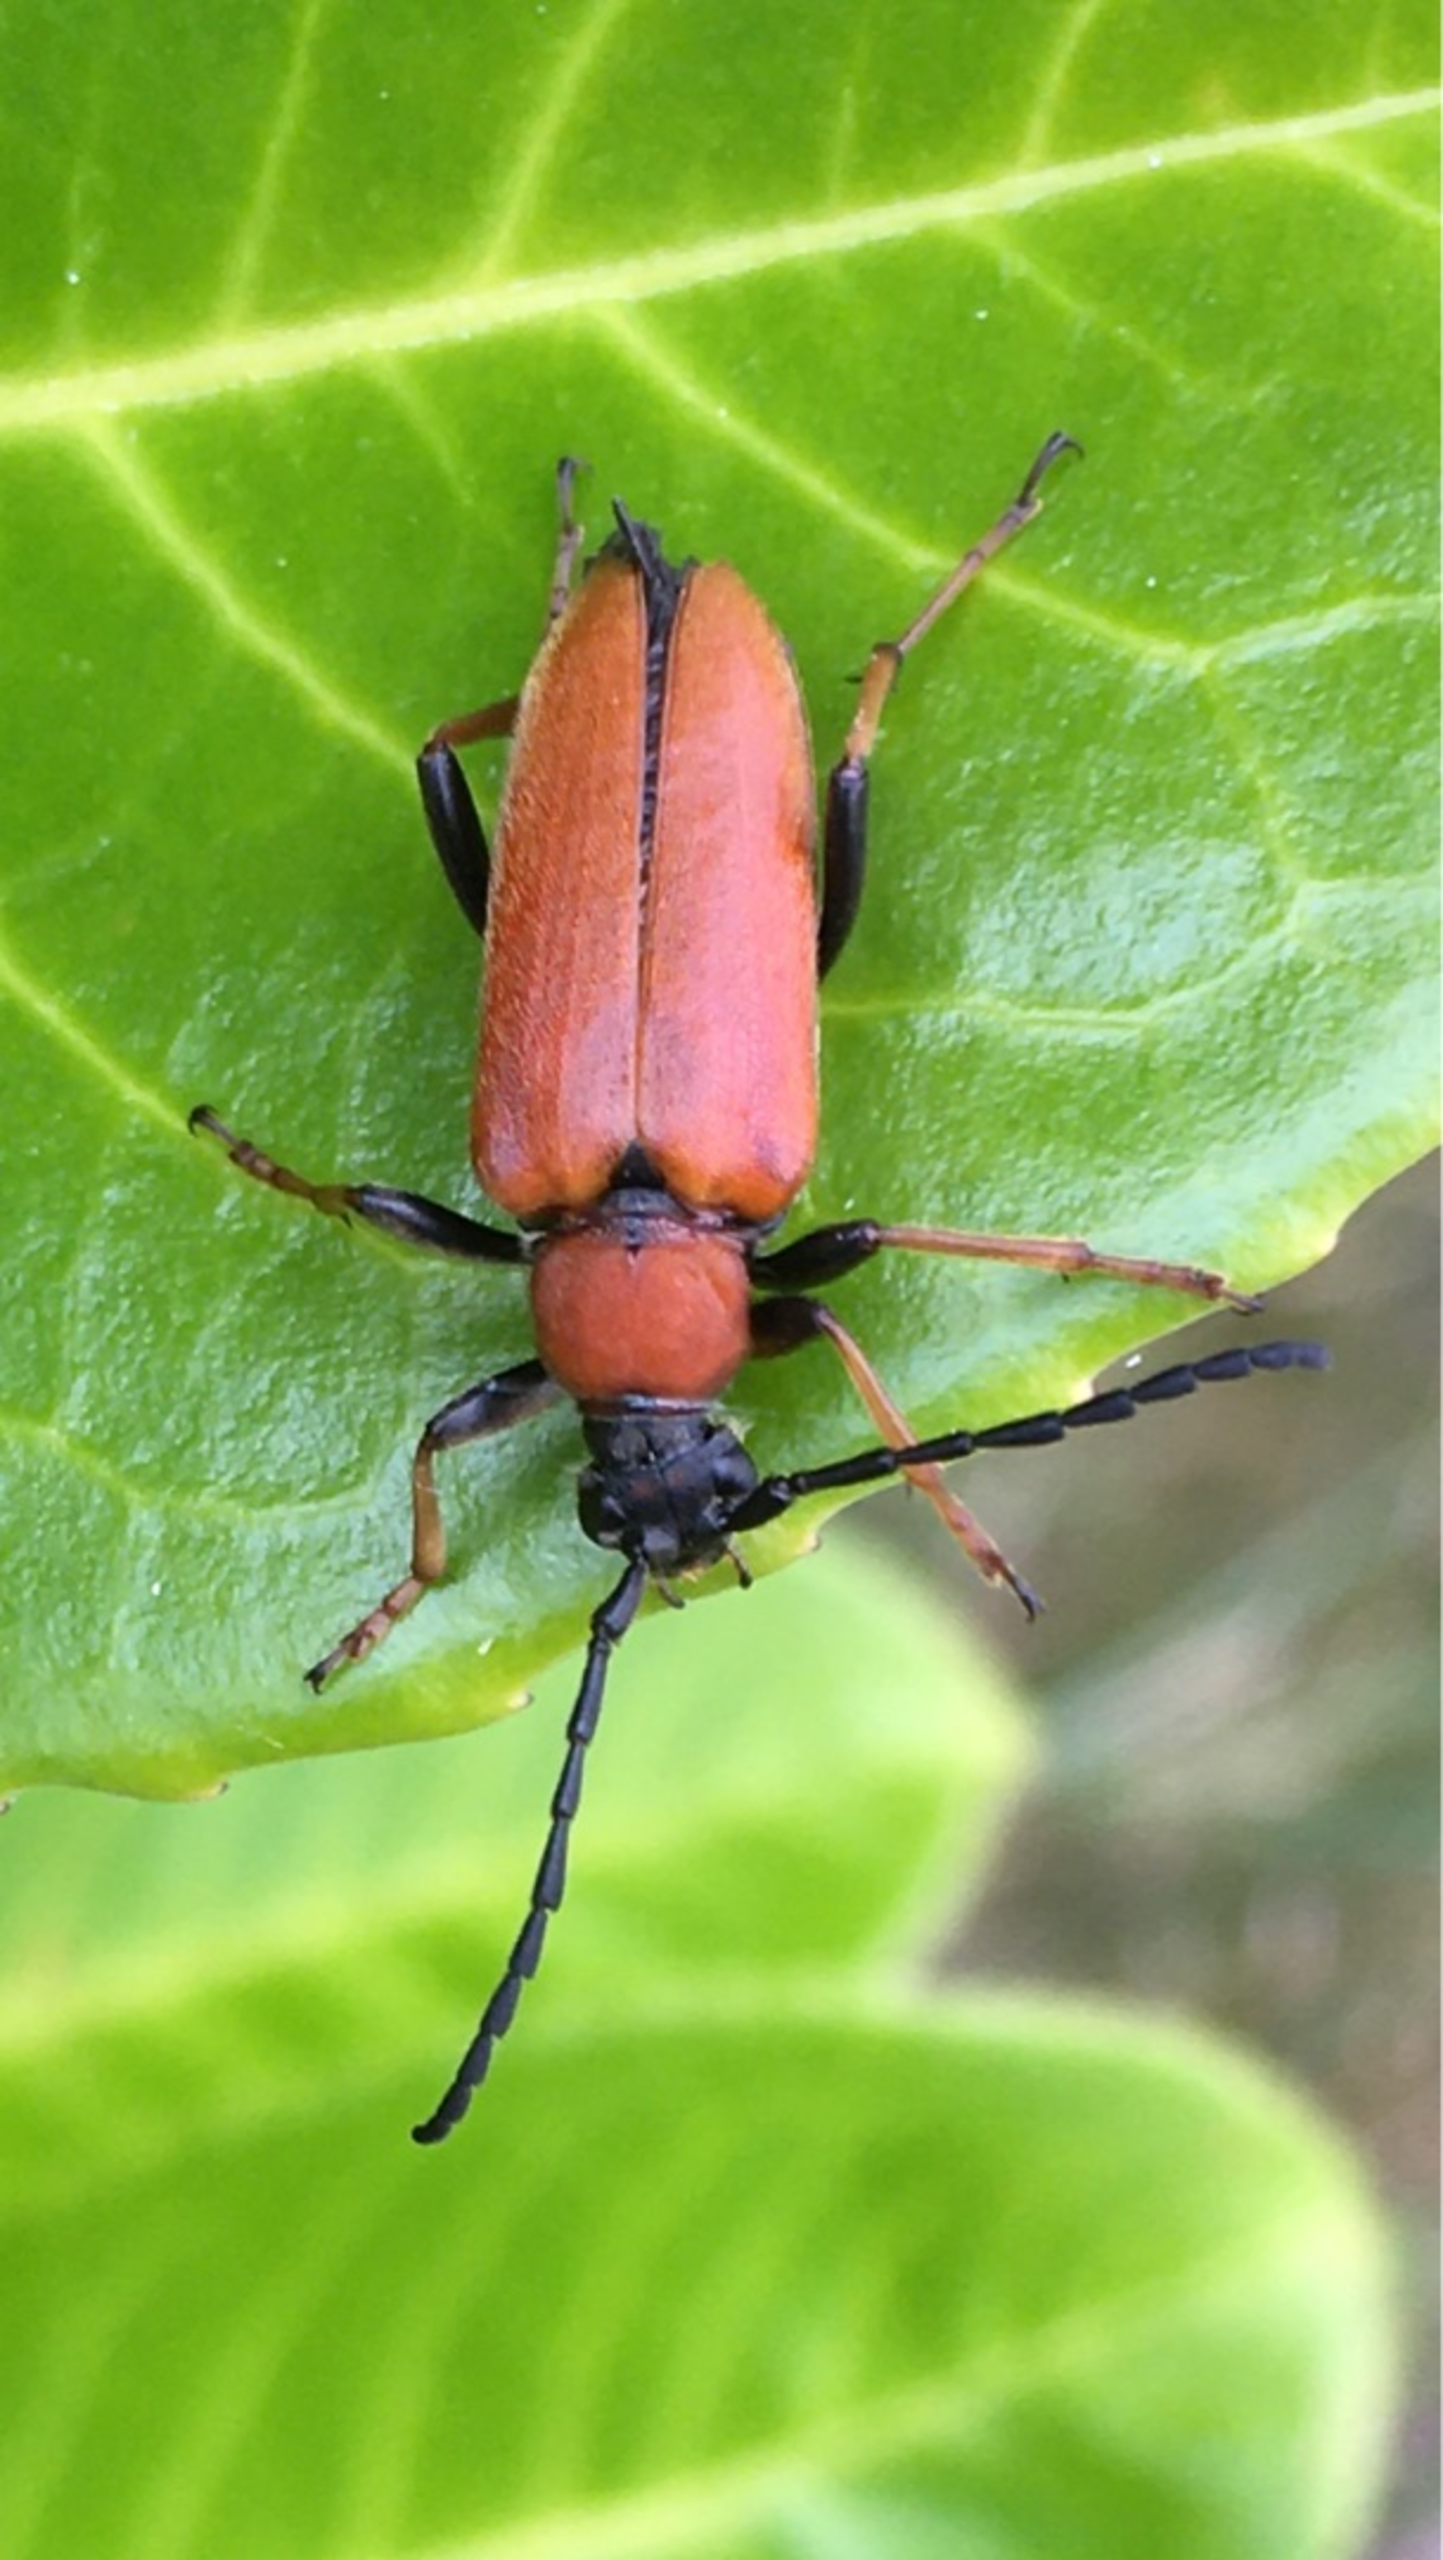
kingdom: Animalia
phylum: Arthropoda
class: Insecta
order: Coleoptera
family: Cerambycidae
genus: Stictoleptura
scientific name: Stictoleptura rubra
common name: Rød blomsterbuk
